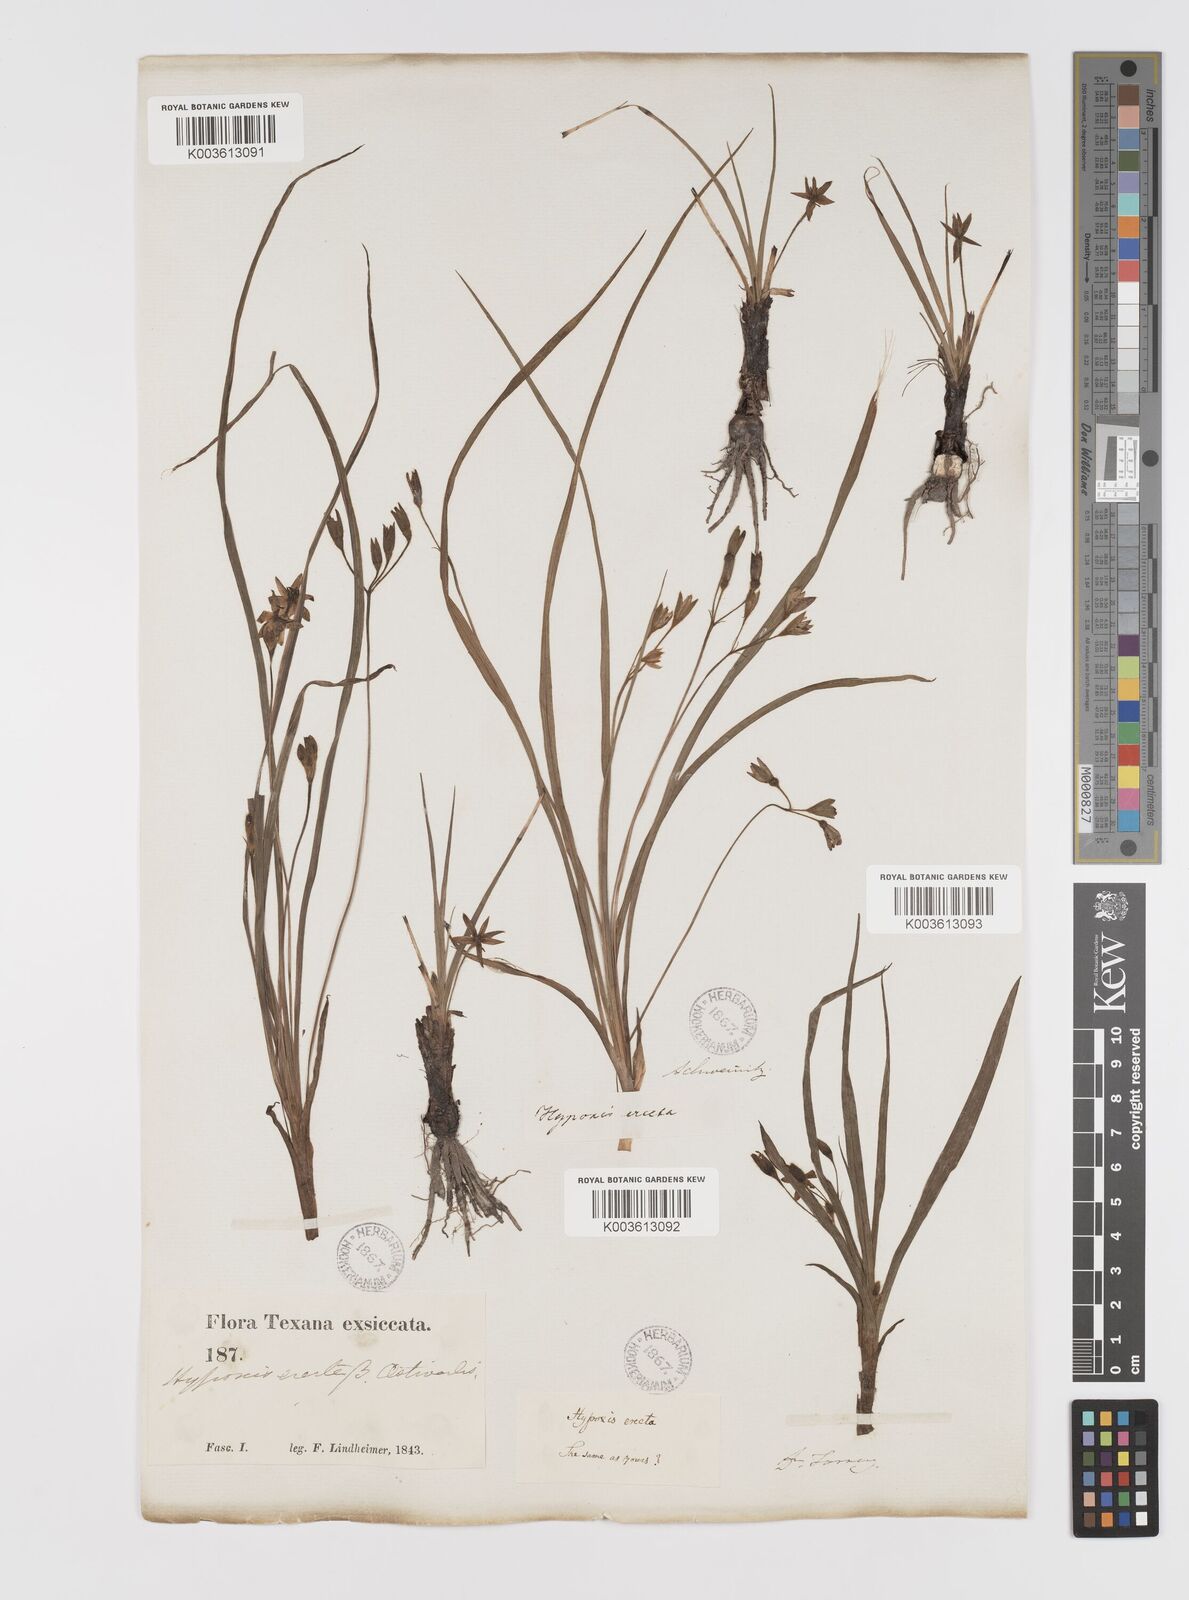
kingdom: Plantae
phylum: Tracheophyta
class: Liliopsida
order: Asparagales
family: Hypoxidaceae
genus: Hypoxis
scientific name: Hypoxis hirsuta
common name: Common goldstar
